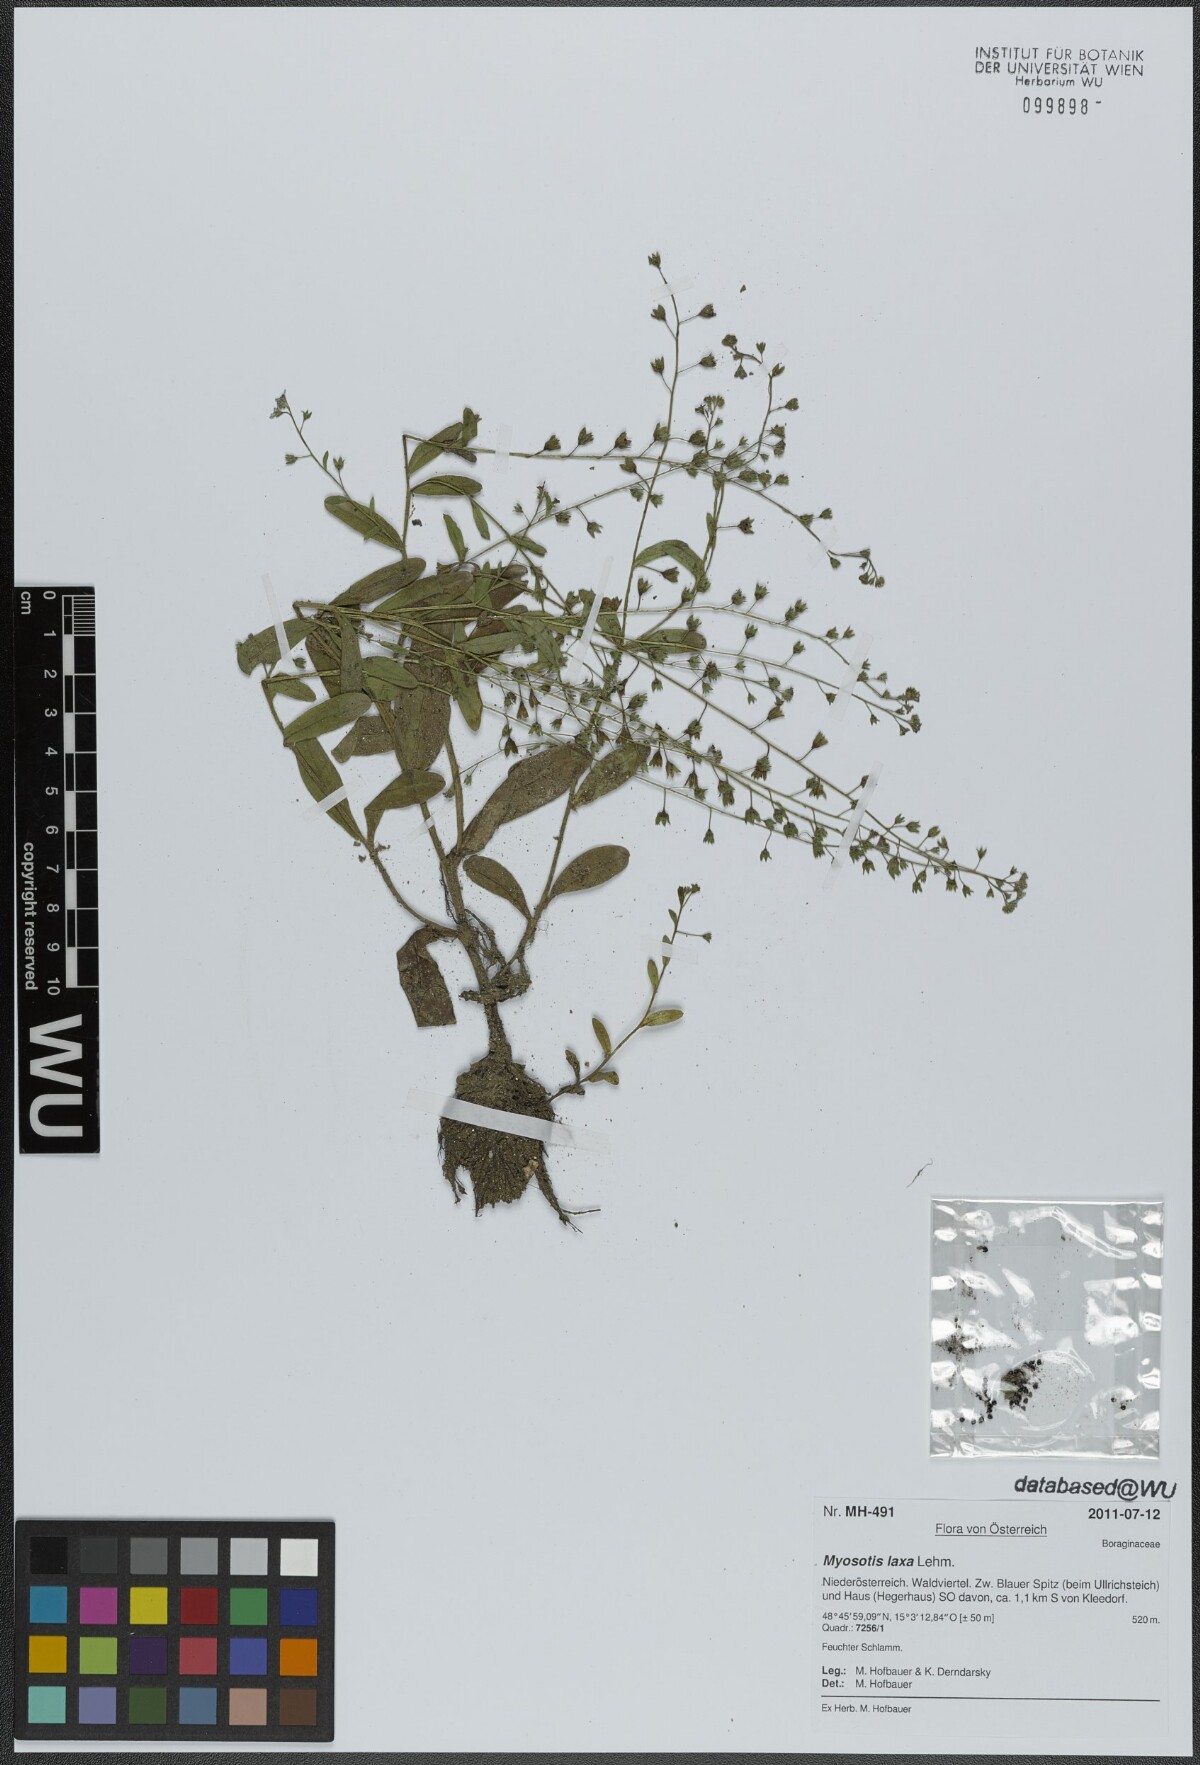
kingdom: Plantae
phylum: Tracheophyta
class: Magnoliopsida
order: Boraginales
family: Boraginaceae
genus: Myosotis
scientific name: Myosotis laxa
